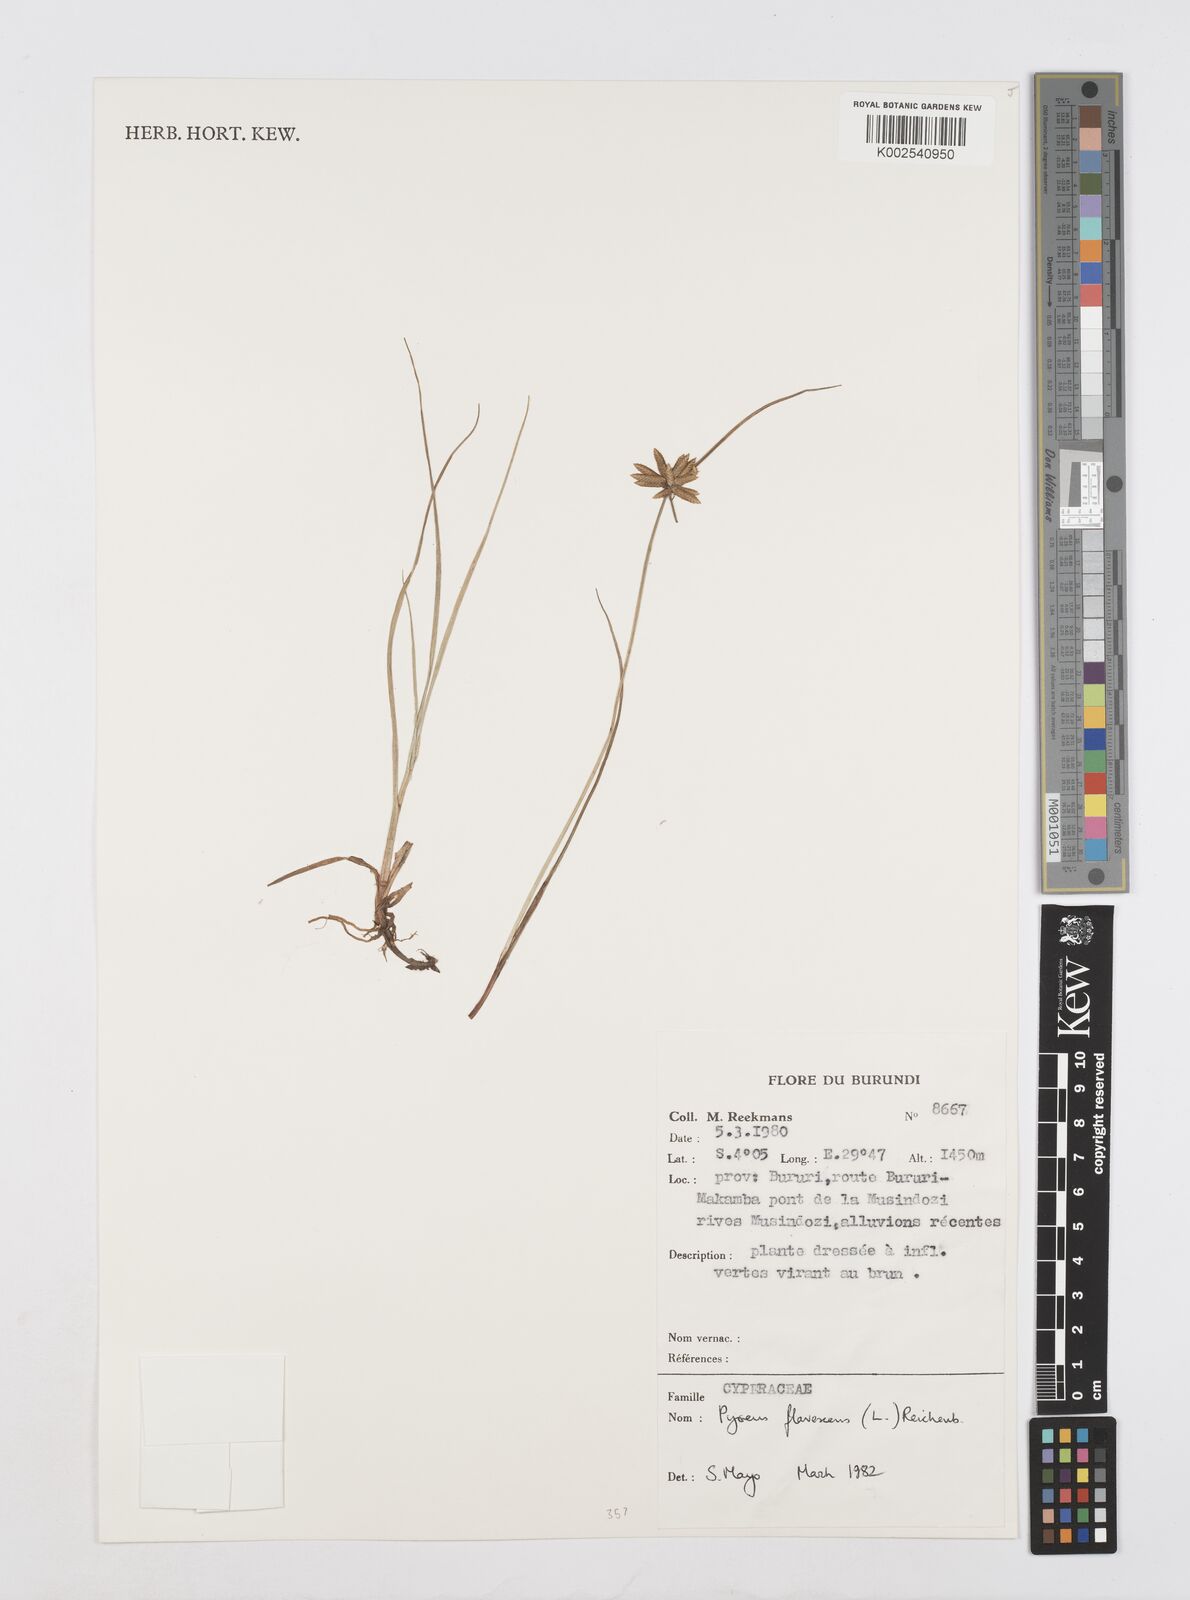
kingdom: Plantae
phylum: Tracheophyta
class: Liliopsida
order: Poales
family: Cyperaceae
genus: Cyperus
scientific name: Cyperus flavescens
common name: Yellow galingale
